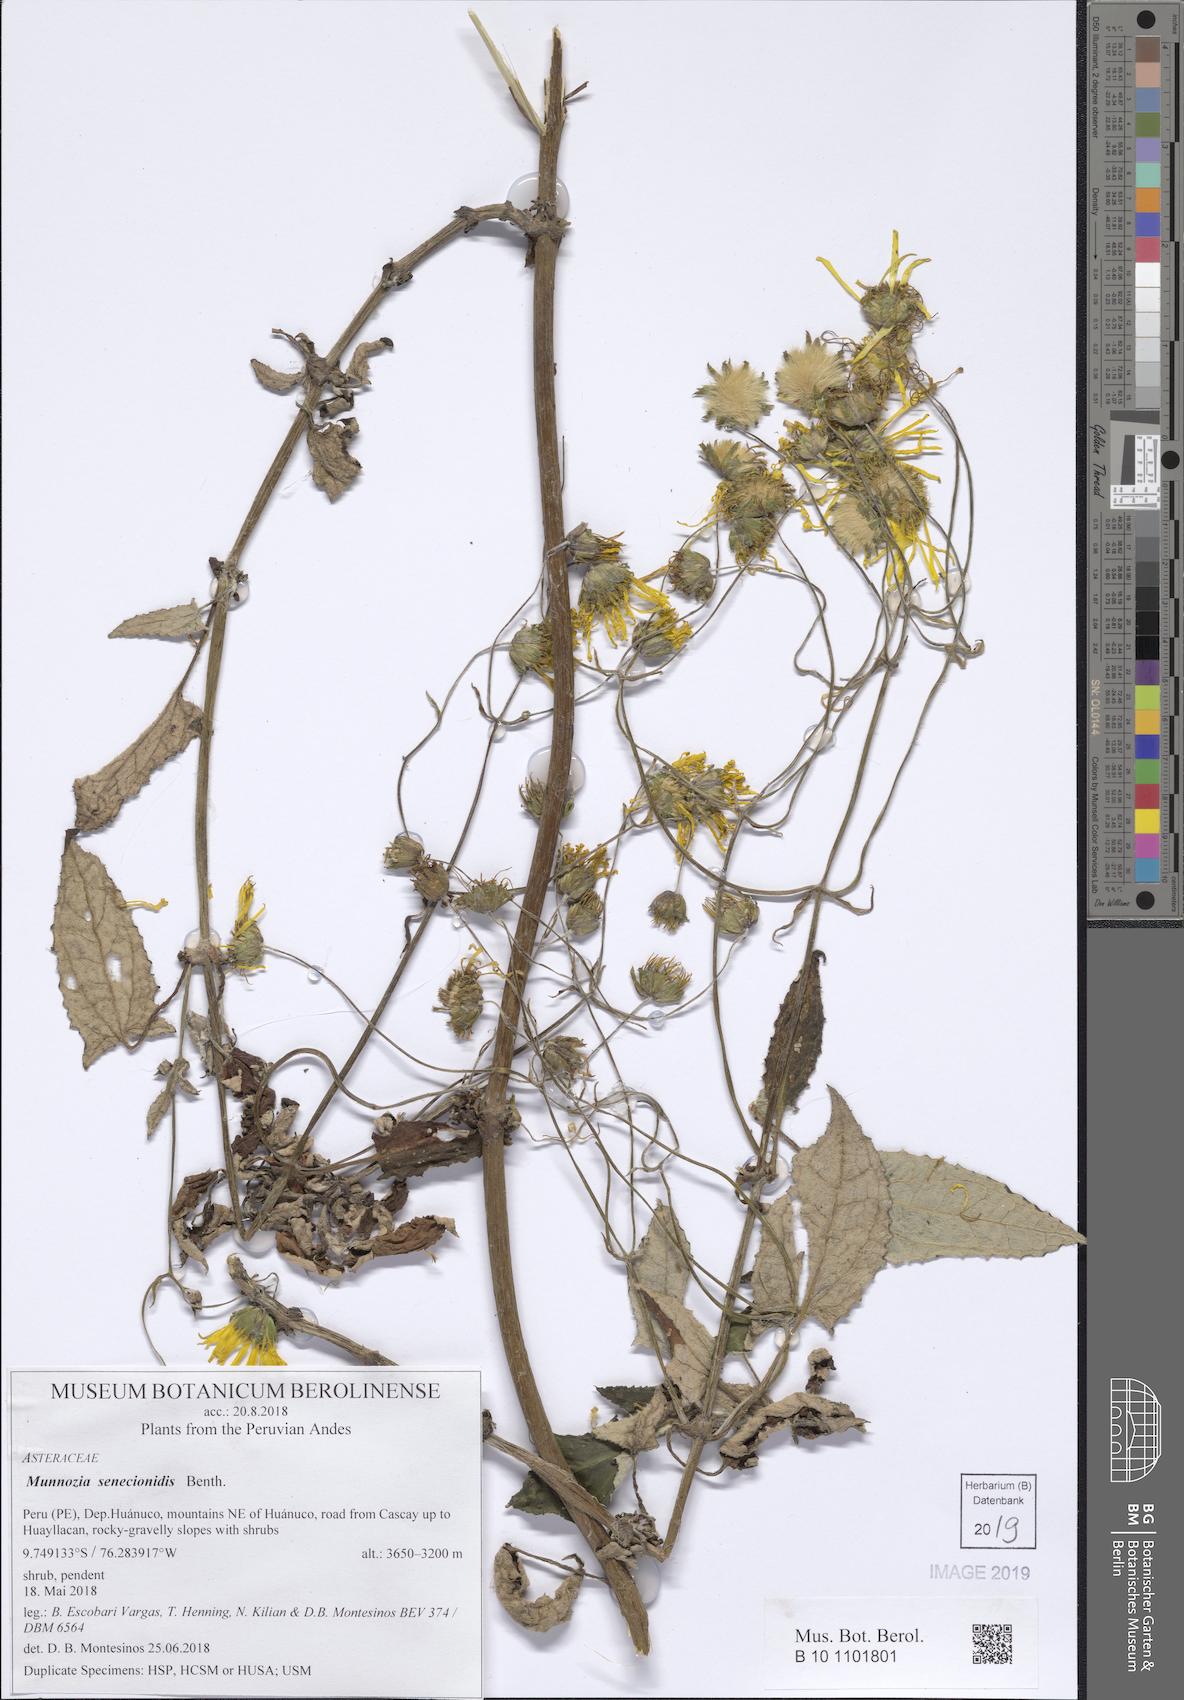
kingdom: Plantae
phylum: Tracheophyta
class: Magnoliopsida
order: Asterales
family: Asteraceae
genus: Munnozia
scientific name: Munnozia senecionidis
